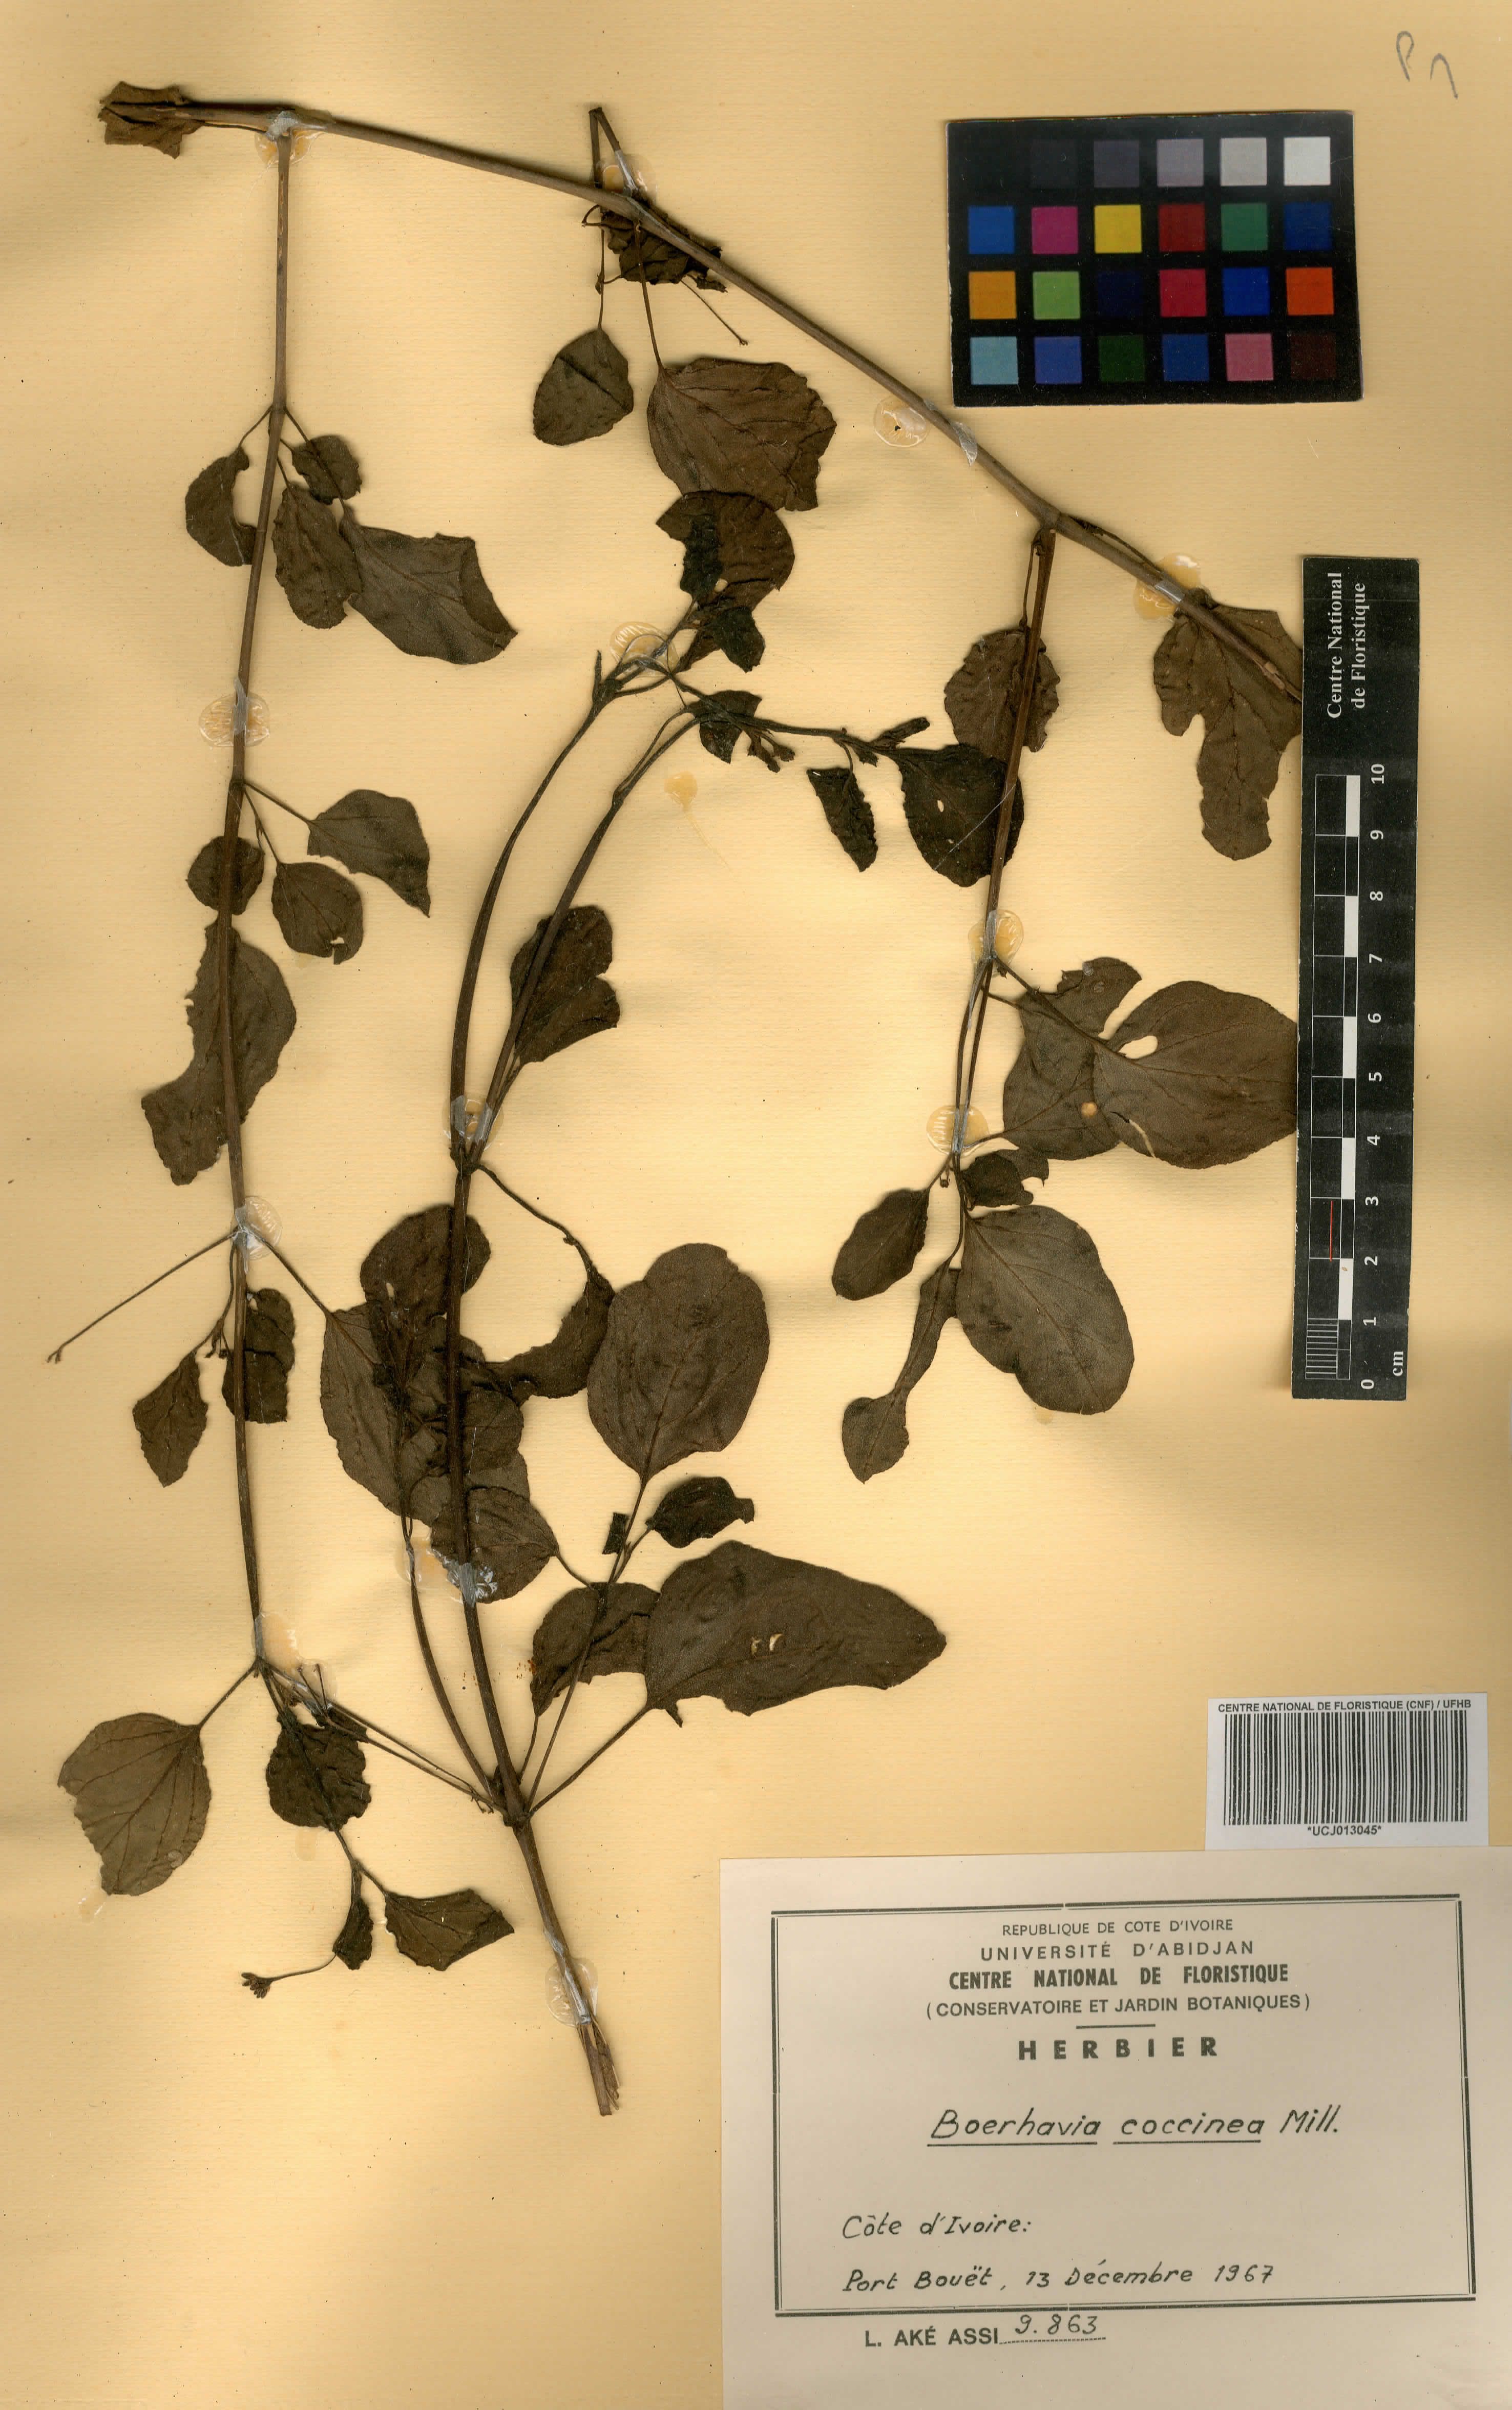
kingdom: Plantae
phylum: Tracheophyta
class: Magnoliopsida
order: Caryophyllales
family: Nyctaginaceae
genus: Boerhavia
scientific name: Boerhavia coccinea
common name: Scarlet spiderling
